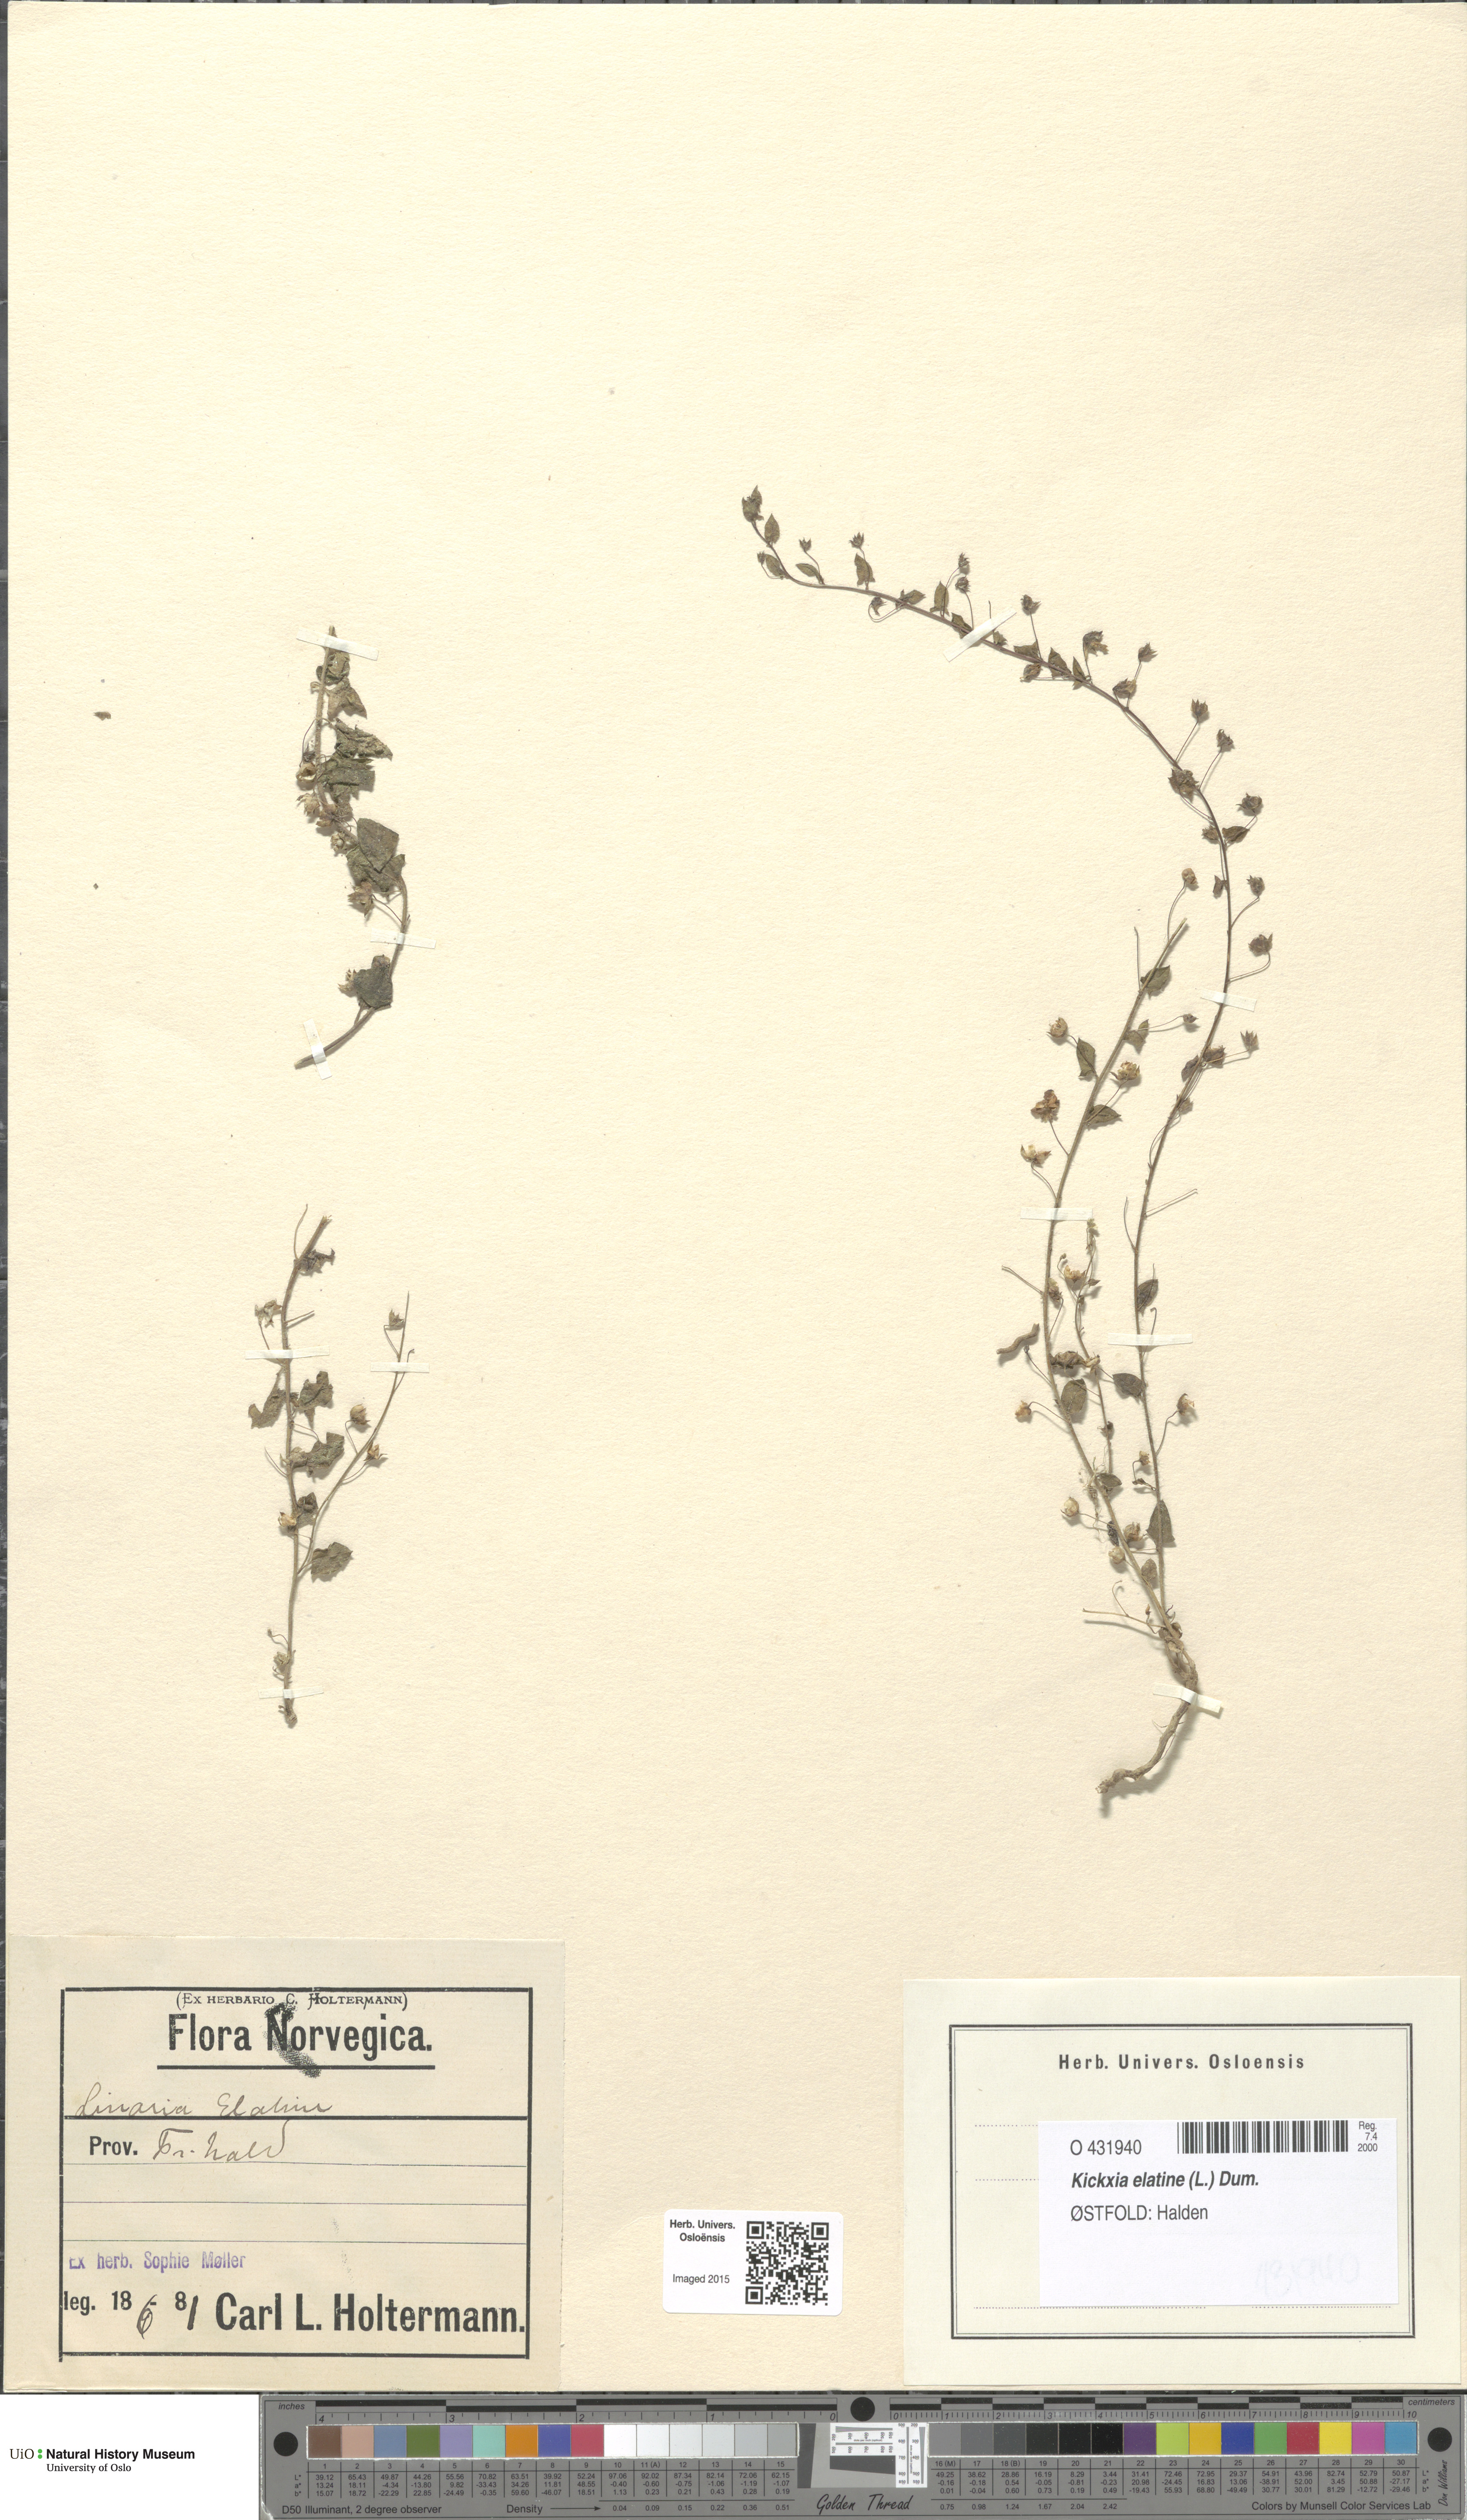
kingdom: Plantae
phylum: Tracheophyta
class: Magnoliopsida
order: Lamiales
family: Plantaginaceae
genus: Kickxia
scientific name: Kickxia elatine
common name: Sharp-leaved fluellen
